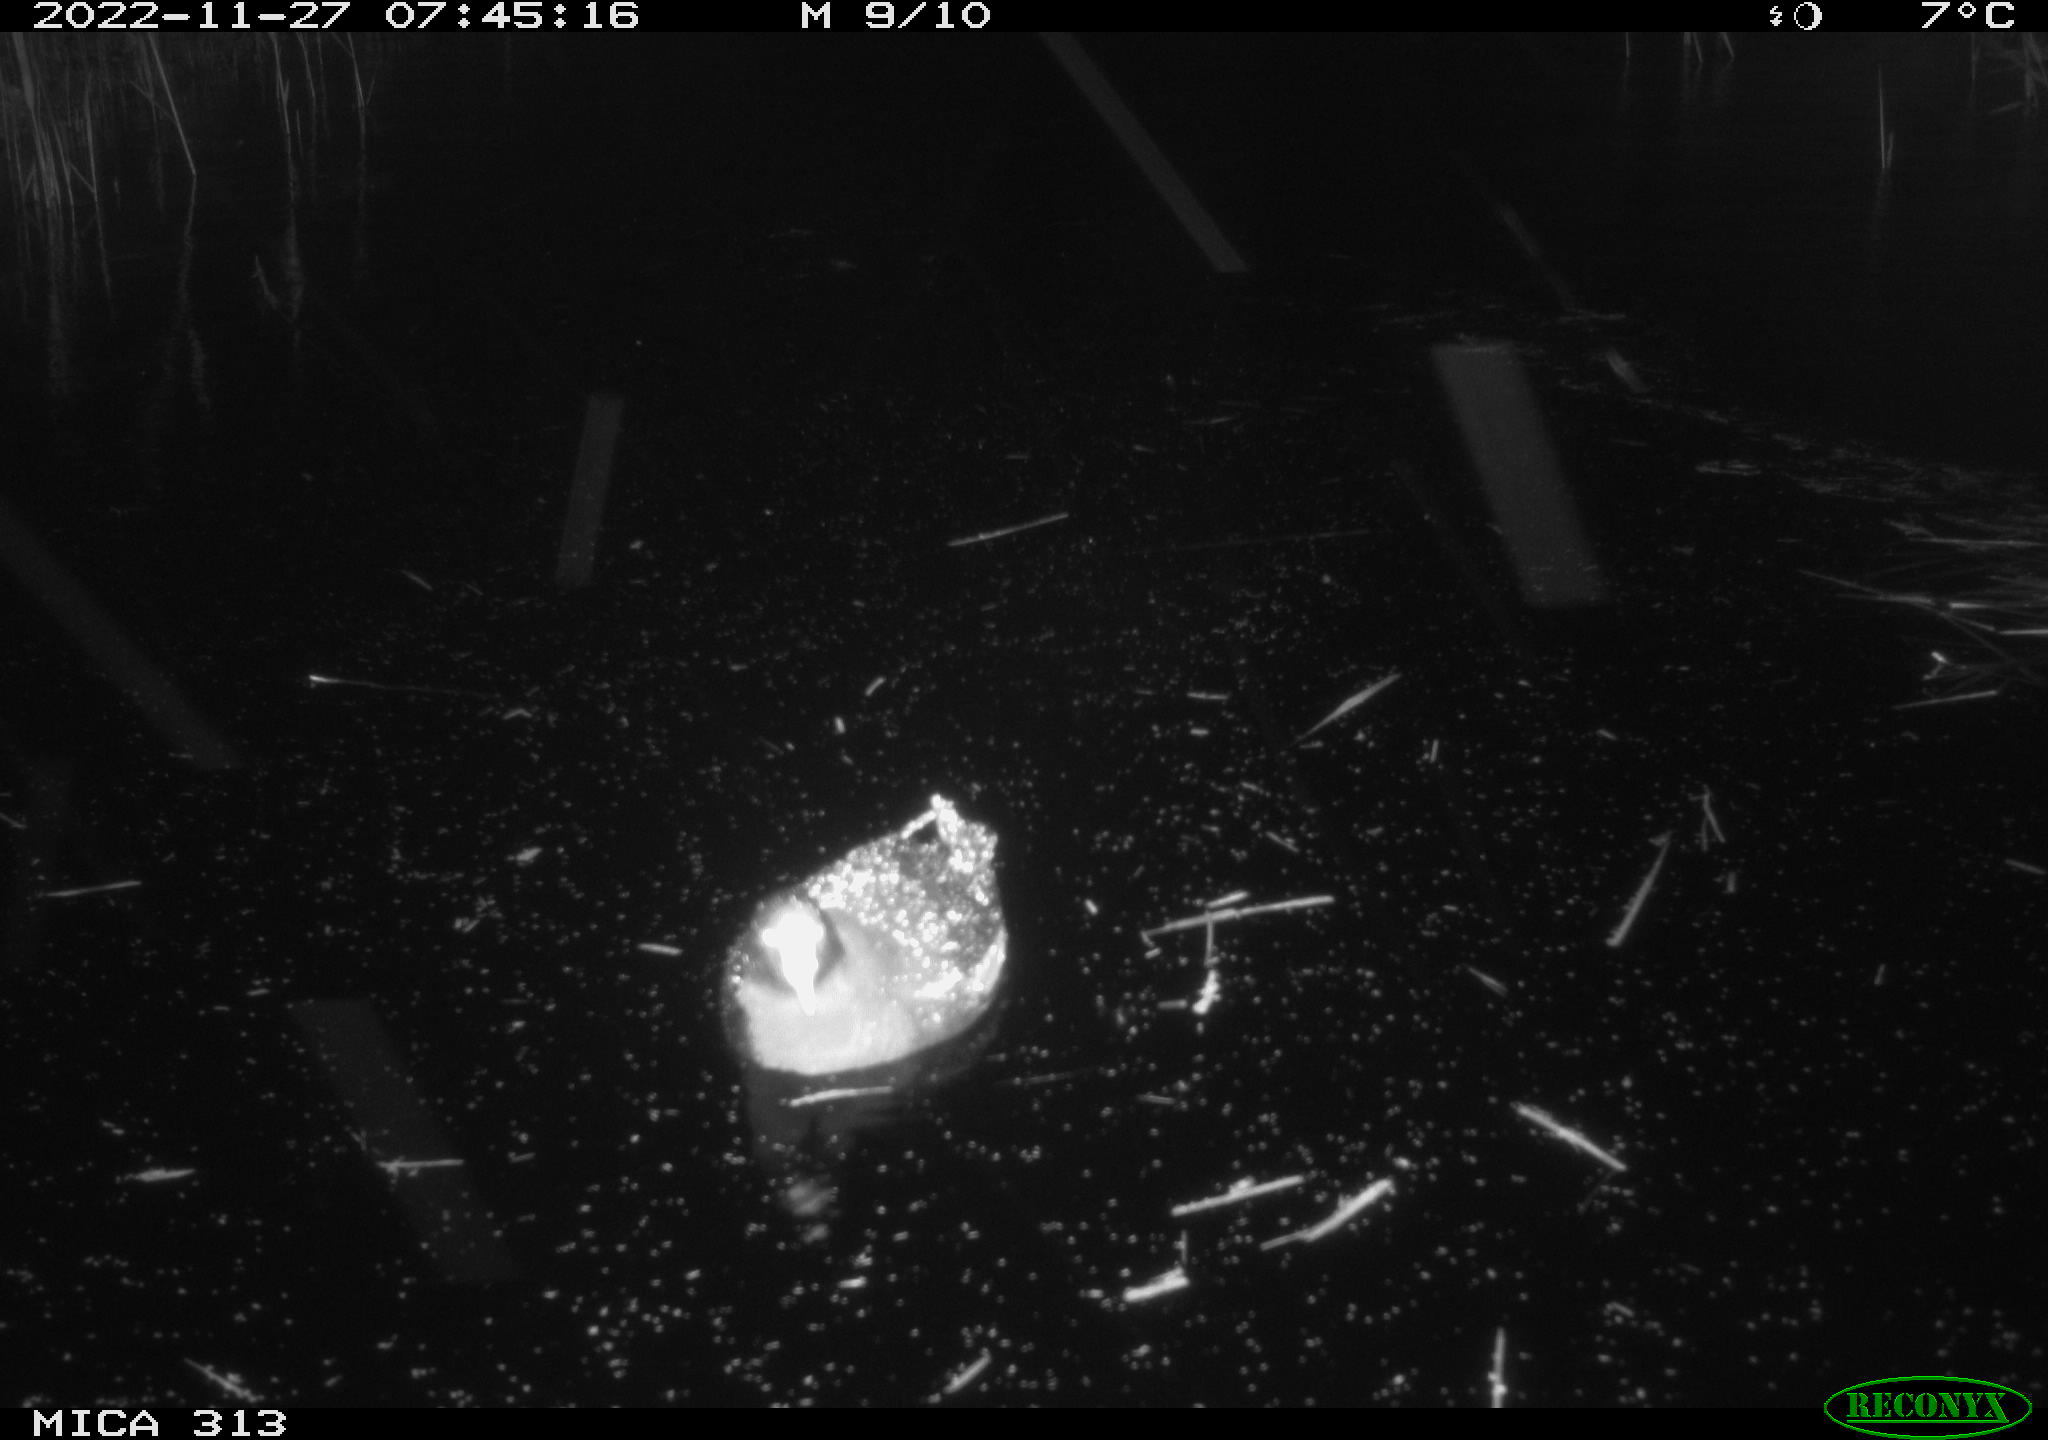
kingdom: Animalia
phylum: Chordata
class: Aves
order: Anseriformes
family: Anatidae
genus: Anas
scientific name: Anas
